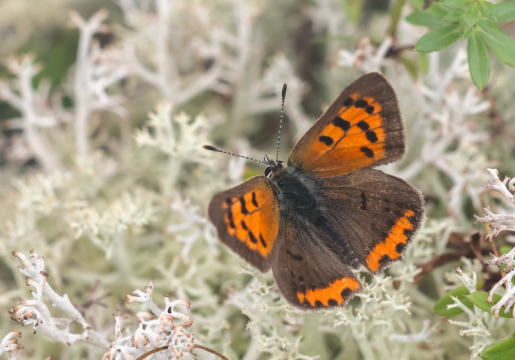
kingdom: Animalia
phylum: Arthropoda
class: Insecta
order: Lepidoptera
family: Lycaenidae
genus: Lycaena
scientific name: Lycaena phlaeas
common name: American Copper
